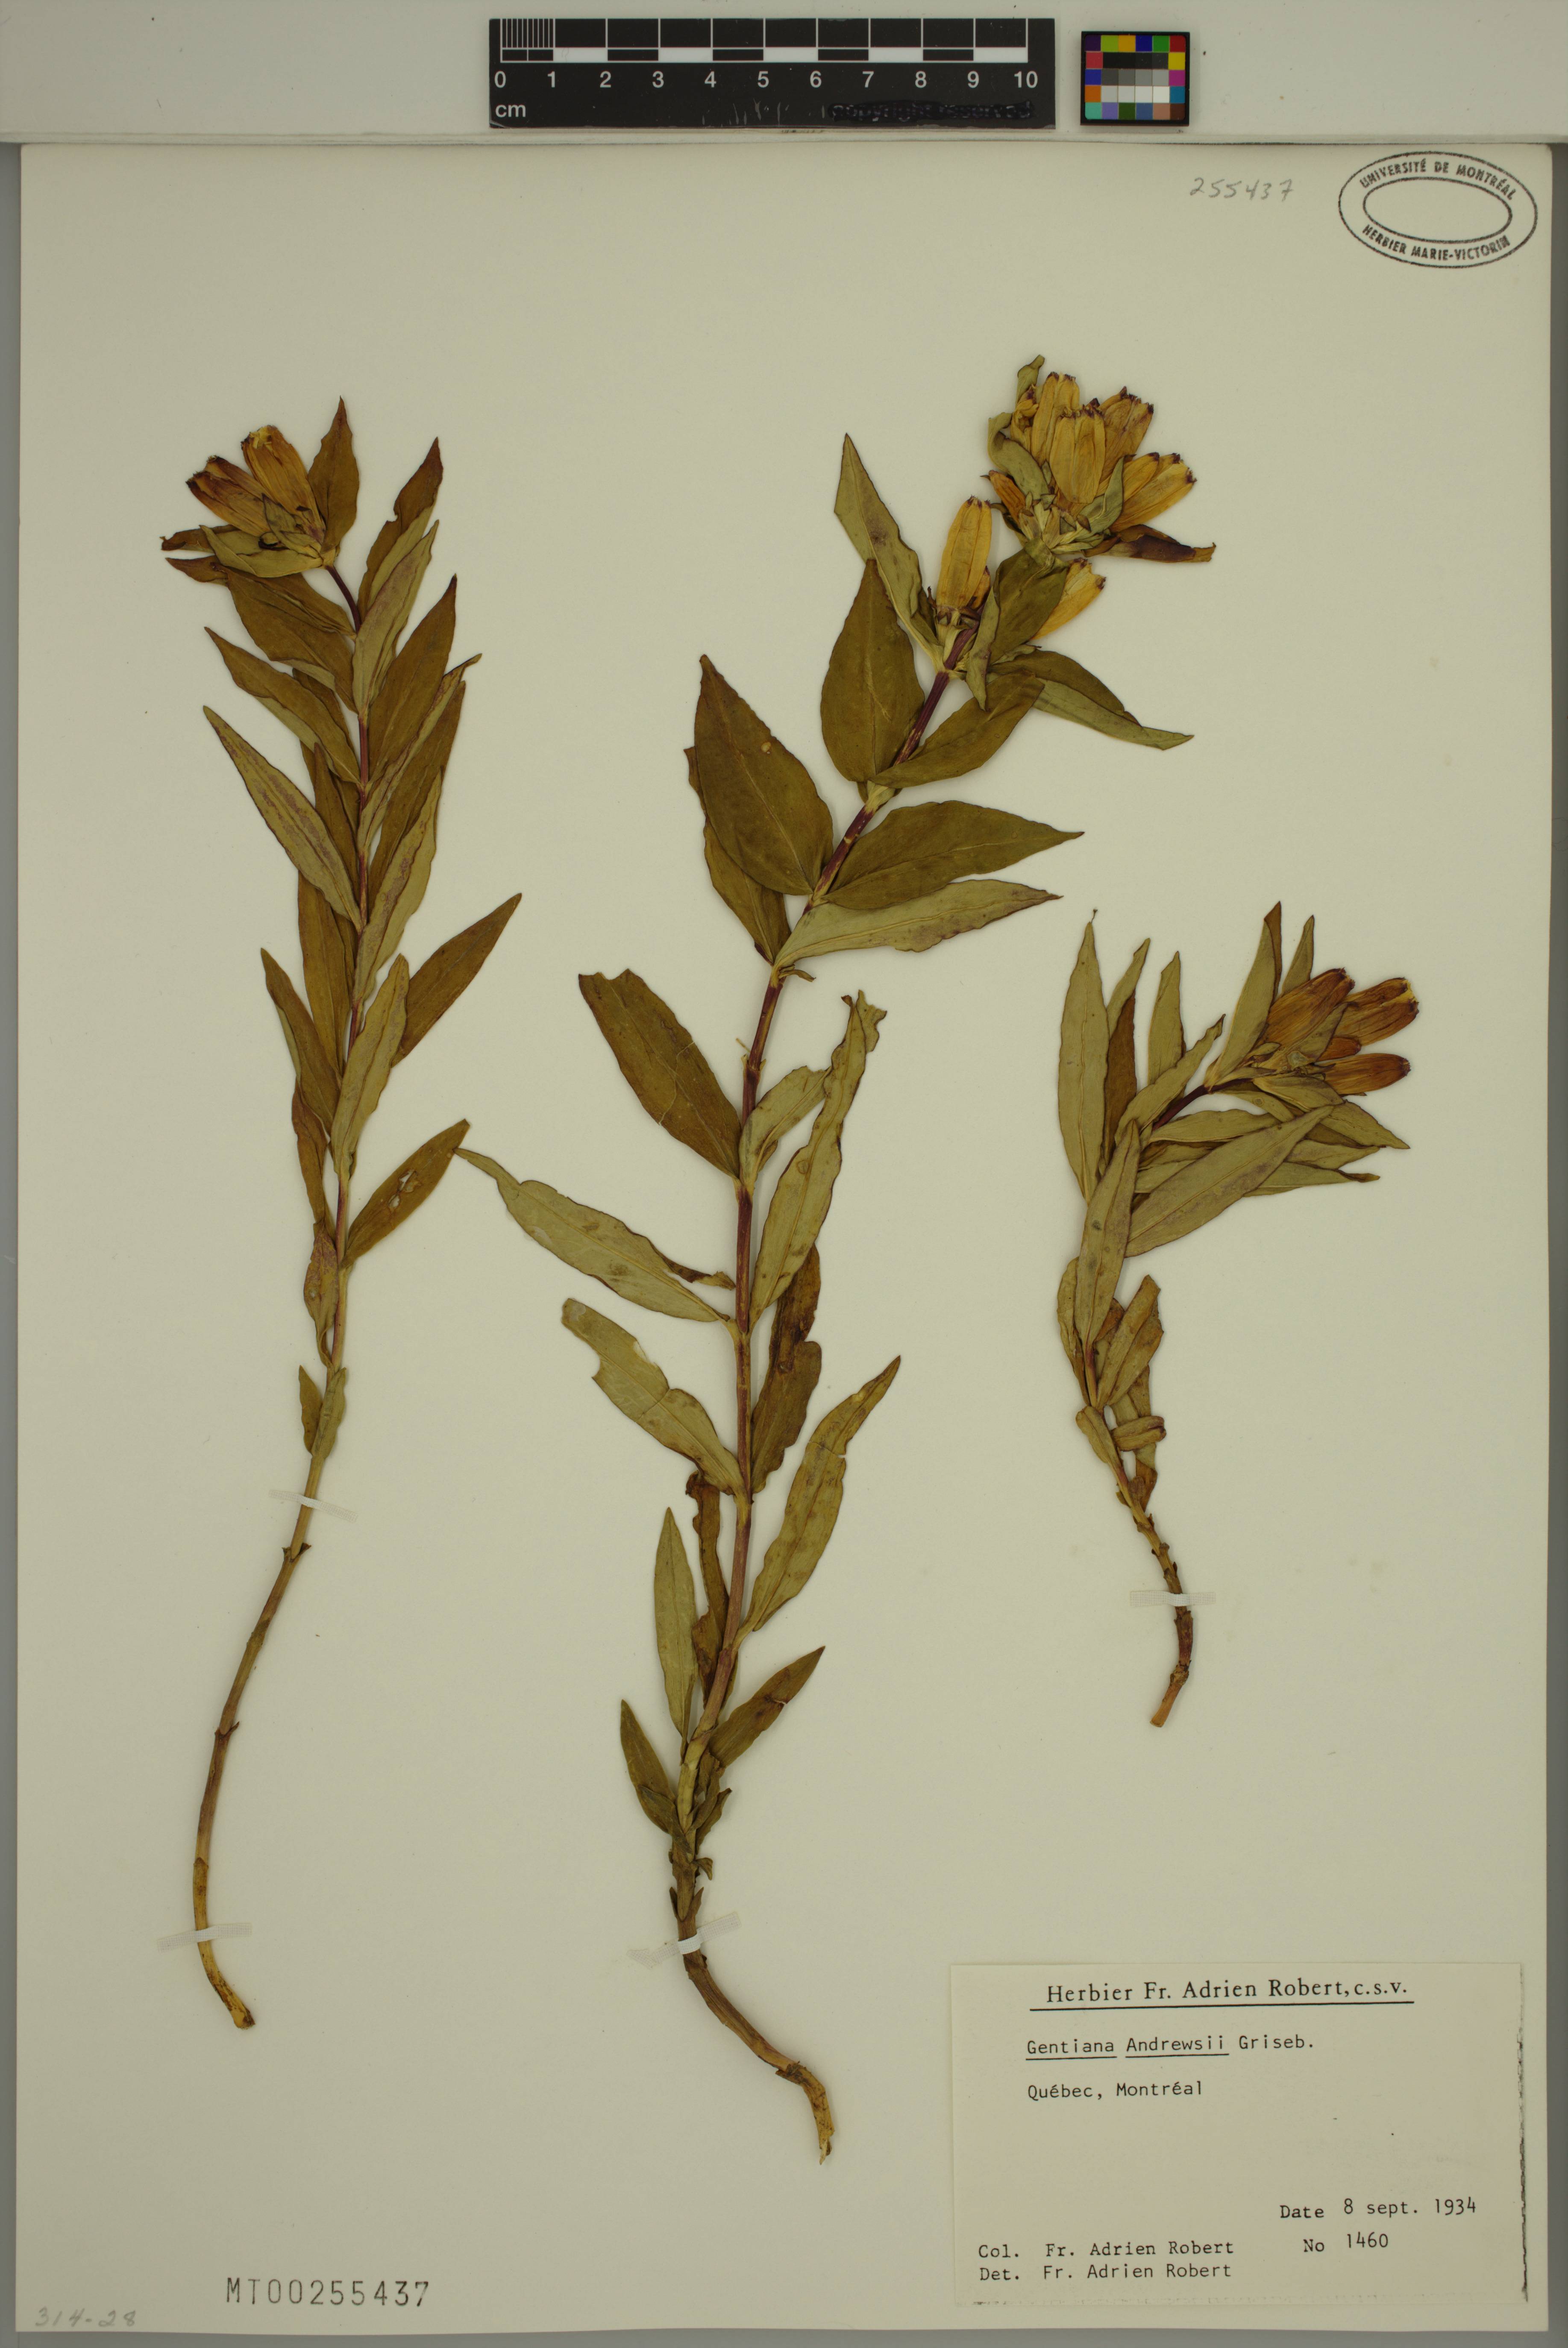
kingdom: Plantae
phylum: Tracheophyta
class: Magnoliopsida
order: Gentianales
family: Gentianaceae
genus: Gentiana
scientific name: Gentiana andrewsii
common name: Bottle gentian
